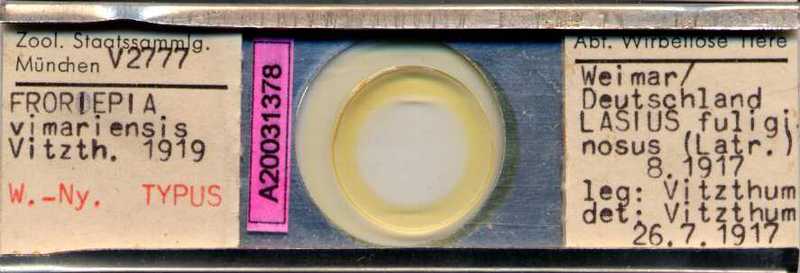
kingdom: Animalia
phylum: Arthropoda
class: Arachnida
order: Sarcoptiformes
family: Acaridae
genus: Froriepia
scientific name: Froriepia
